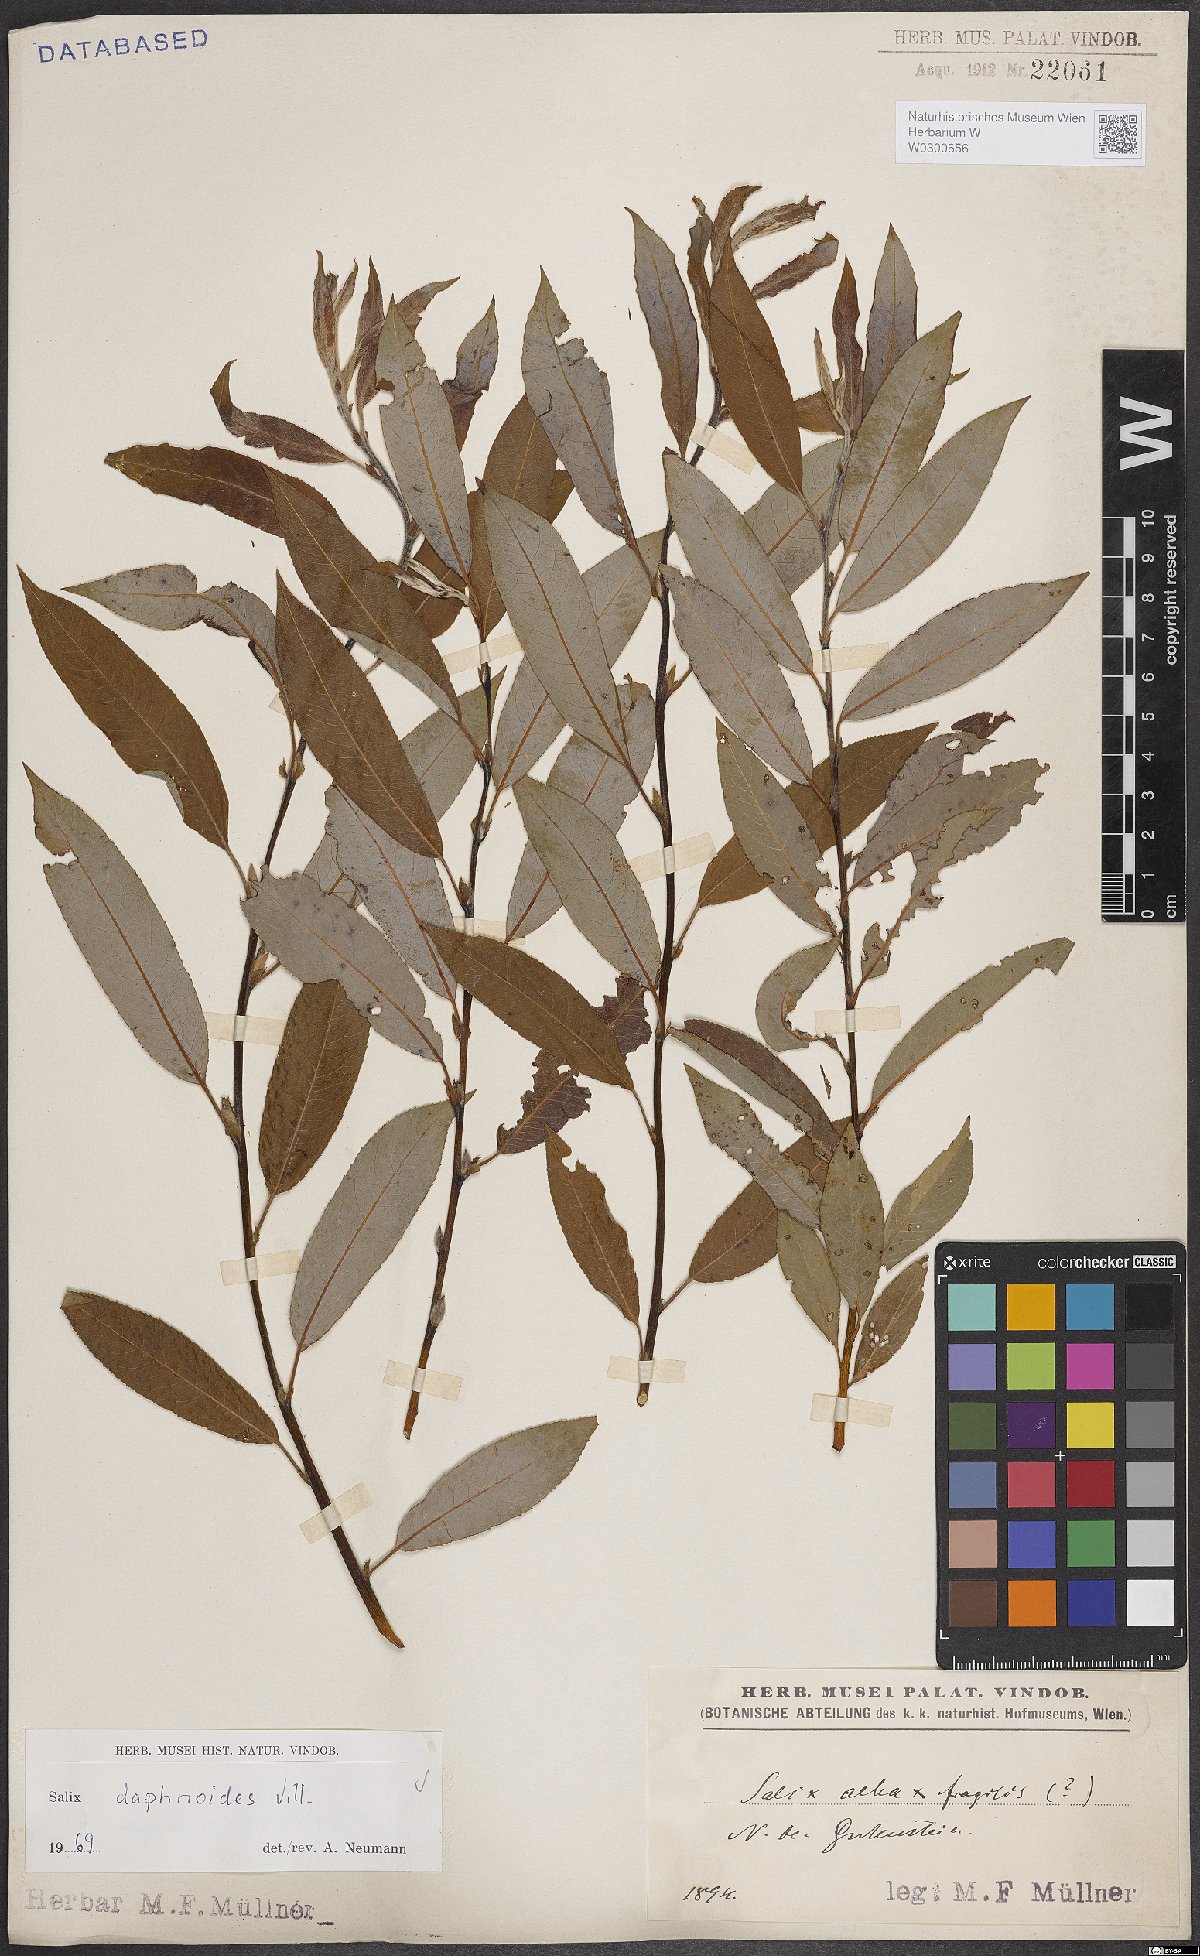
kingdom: Plantae
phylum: Tracheophyta
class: Magnoliopsida
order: Malpighiales
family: Salicaceae
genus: Salix
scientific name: Salix daphnoides
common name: European violet-willow
